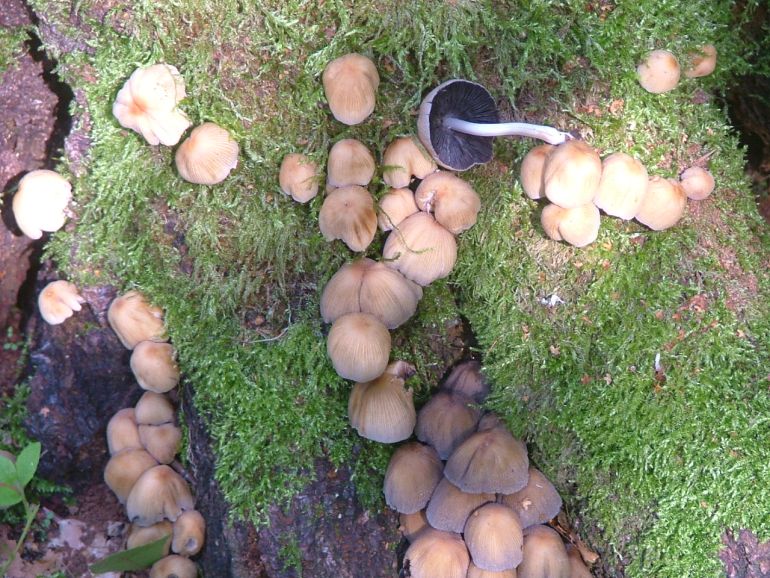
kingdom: Fungi
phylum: Basidiomycota
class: Agaricomycetes
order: Agaricales
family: Psathyrellaceae
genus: Coprinellus
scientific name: Coprinellus micaceus
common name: glimmer-blækhat
